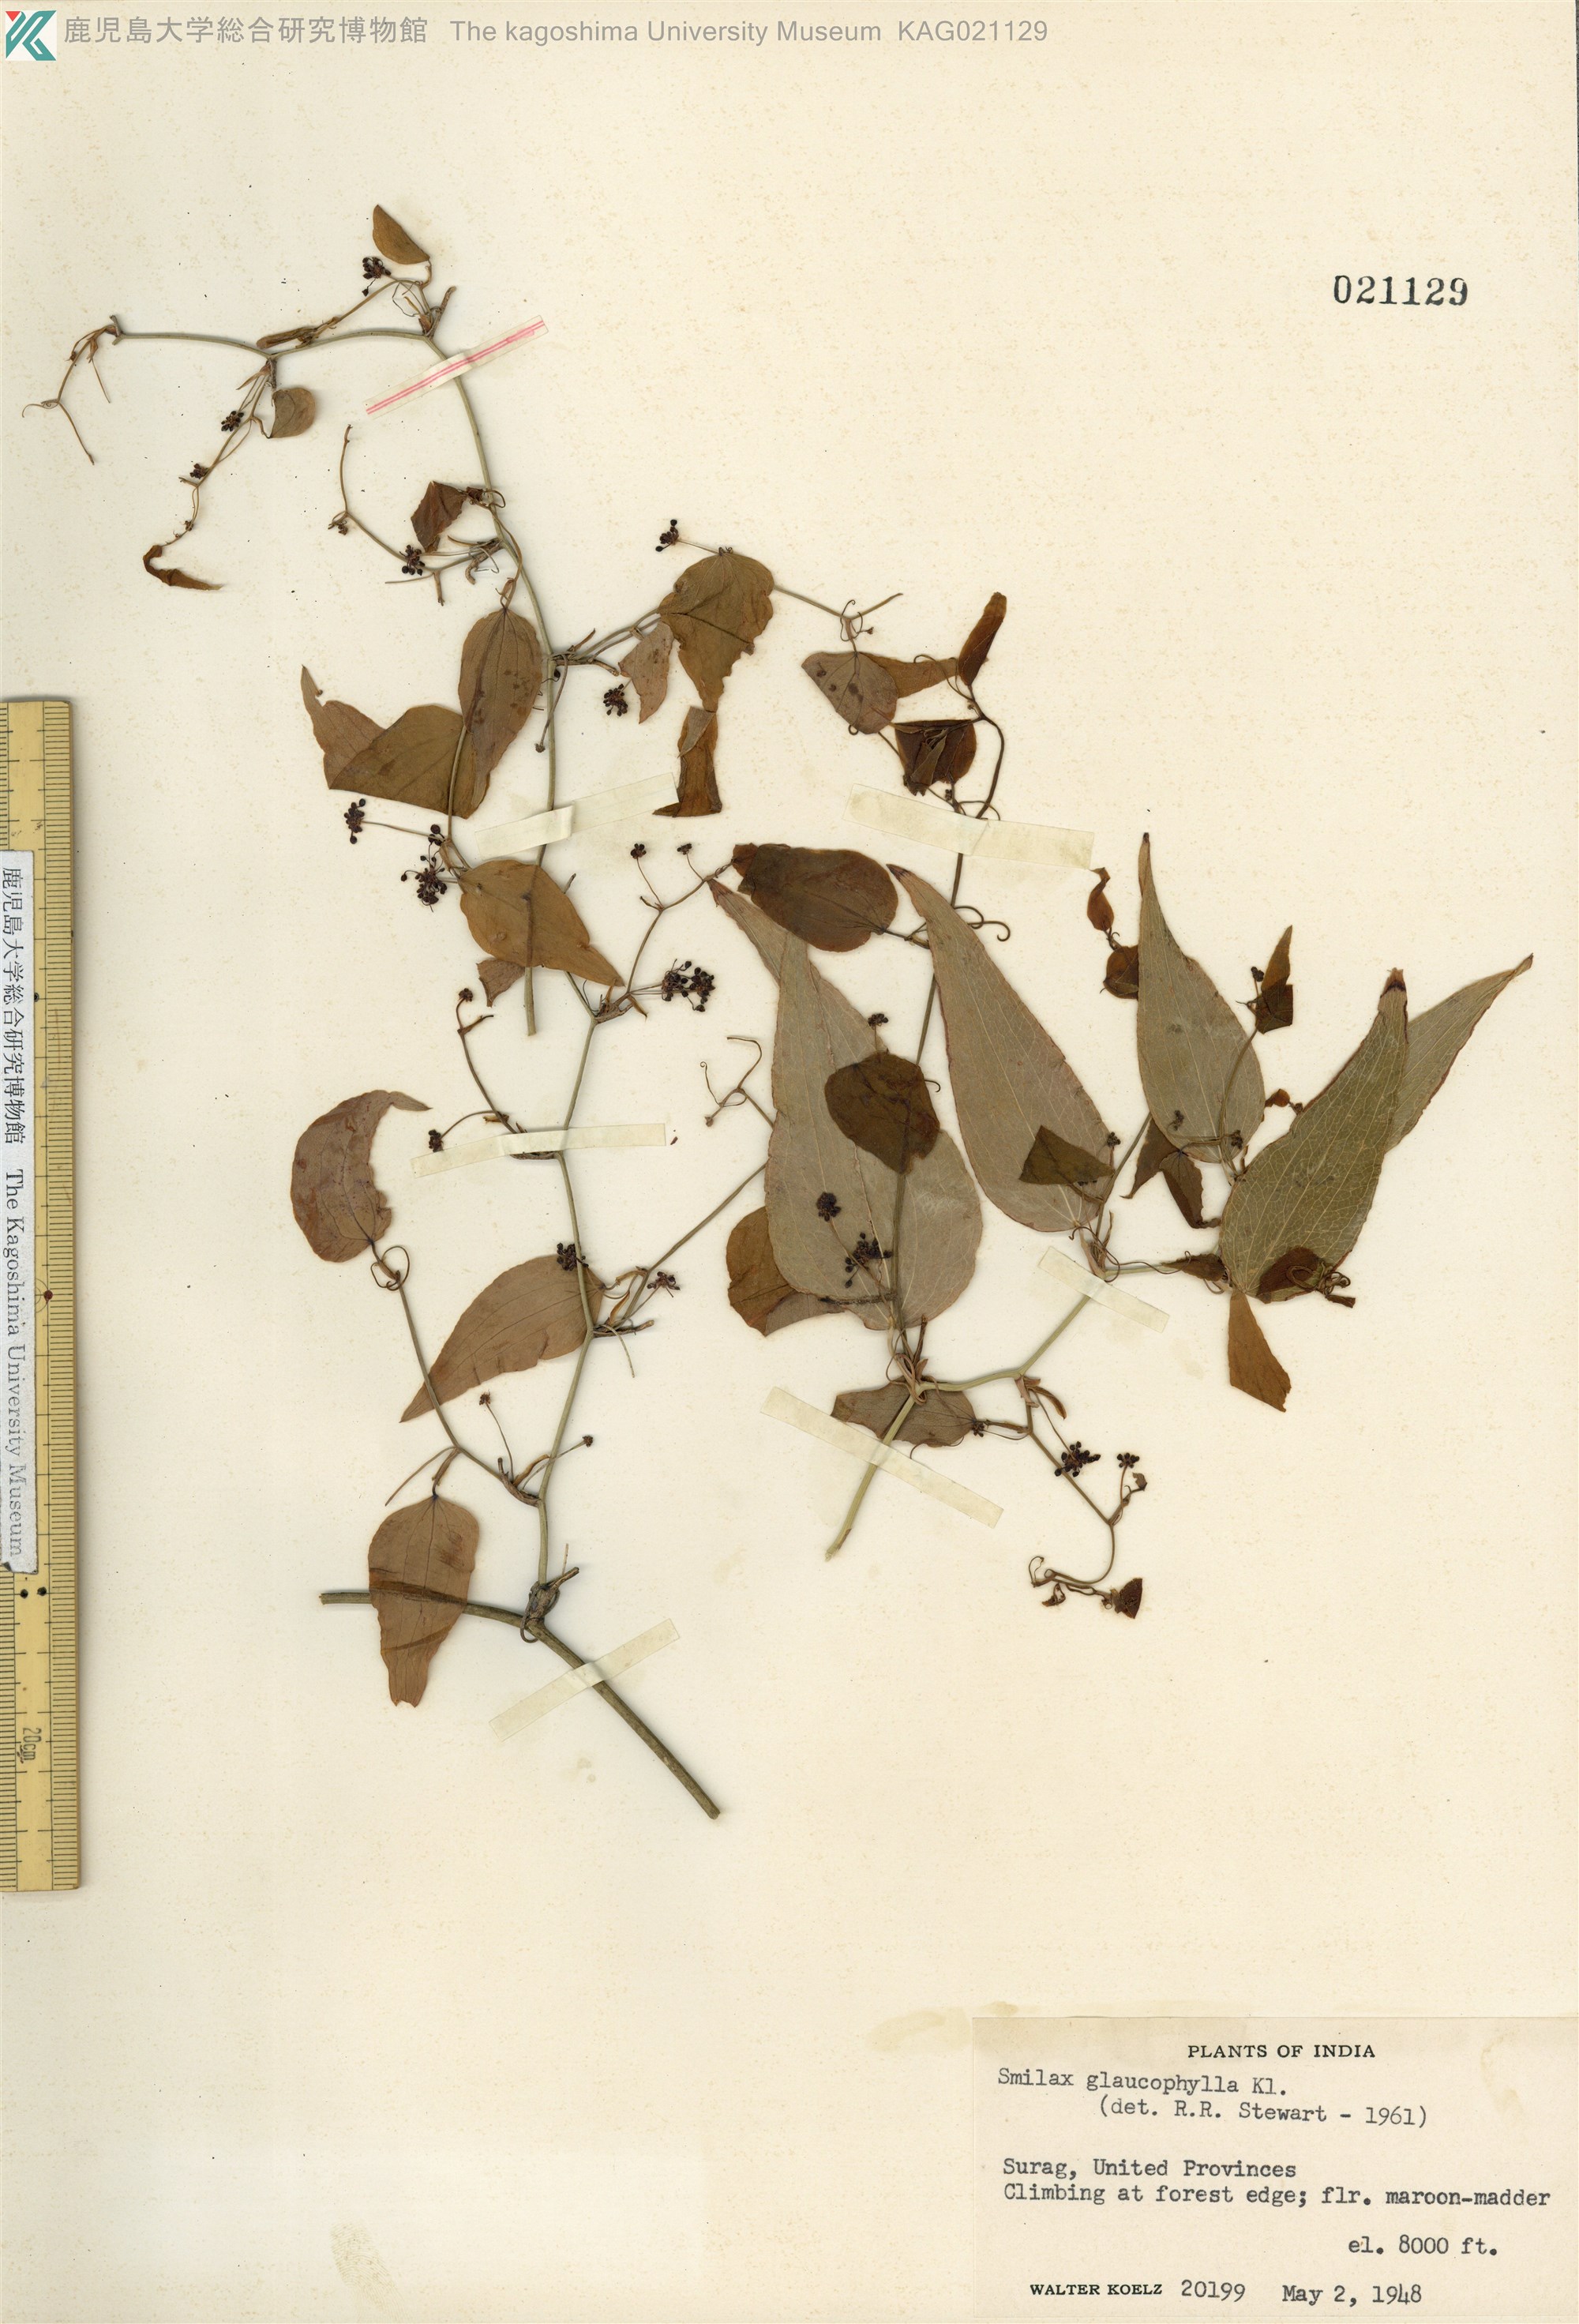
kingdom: Plantae
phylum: Tracheophyta
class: Liliopsida
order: Liliales
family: Smilacaceae
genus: Smilax
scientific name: Smilax elegans
